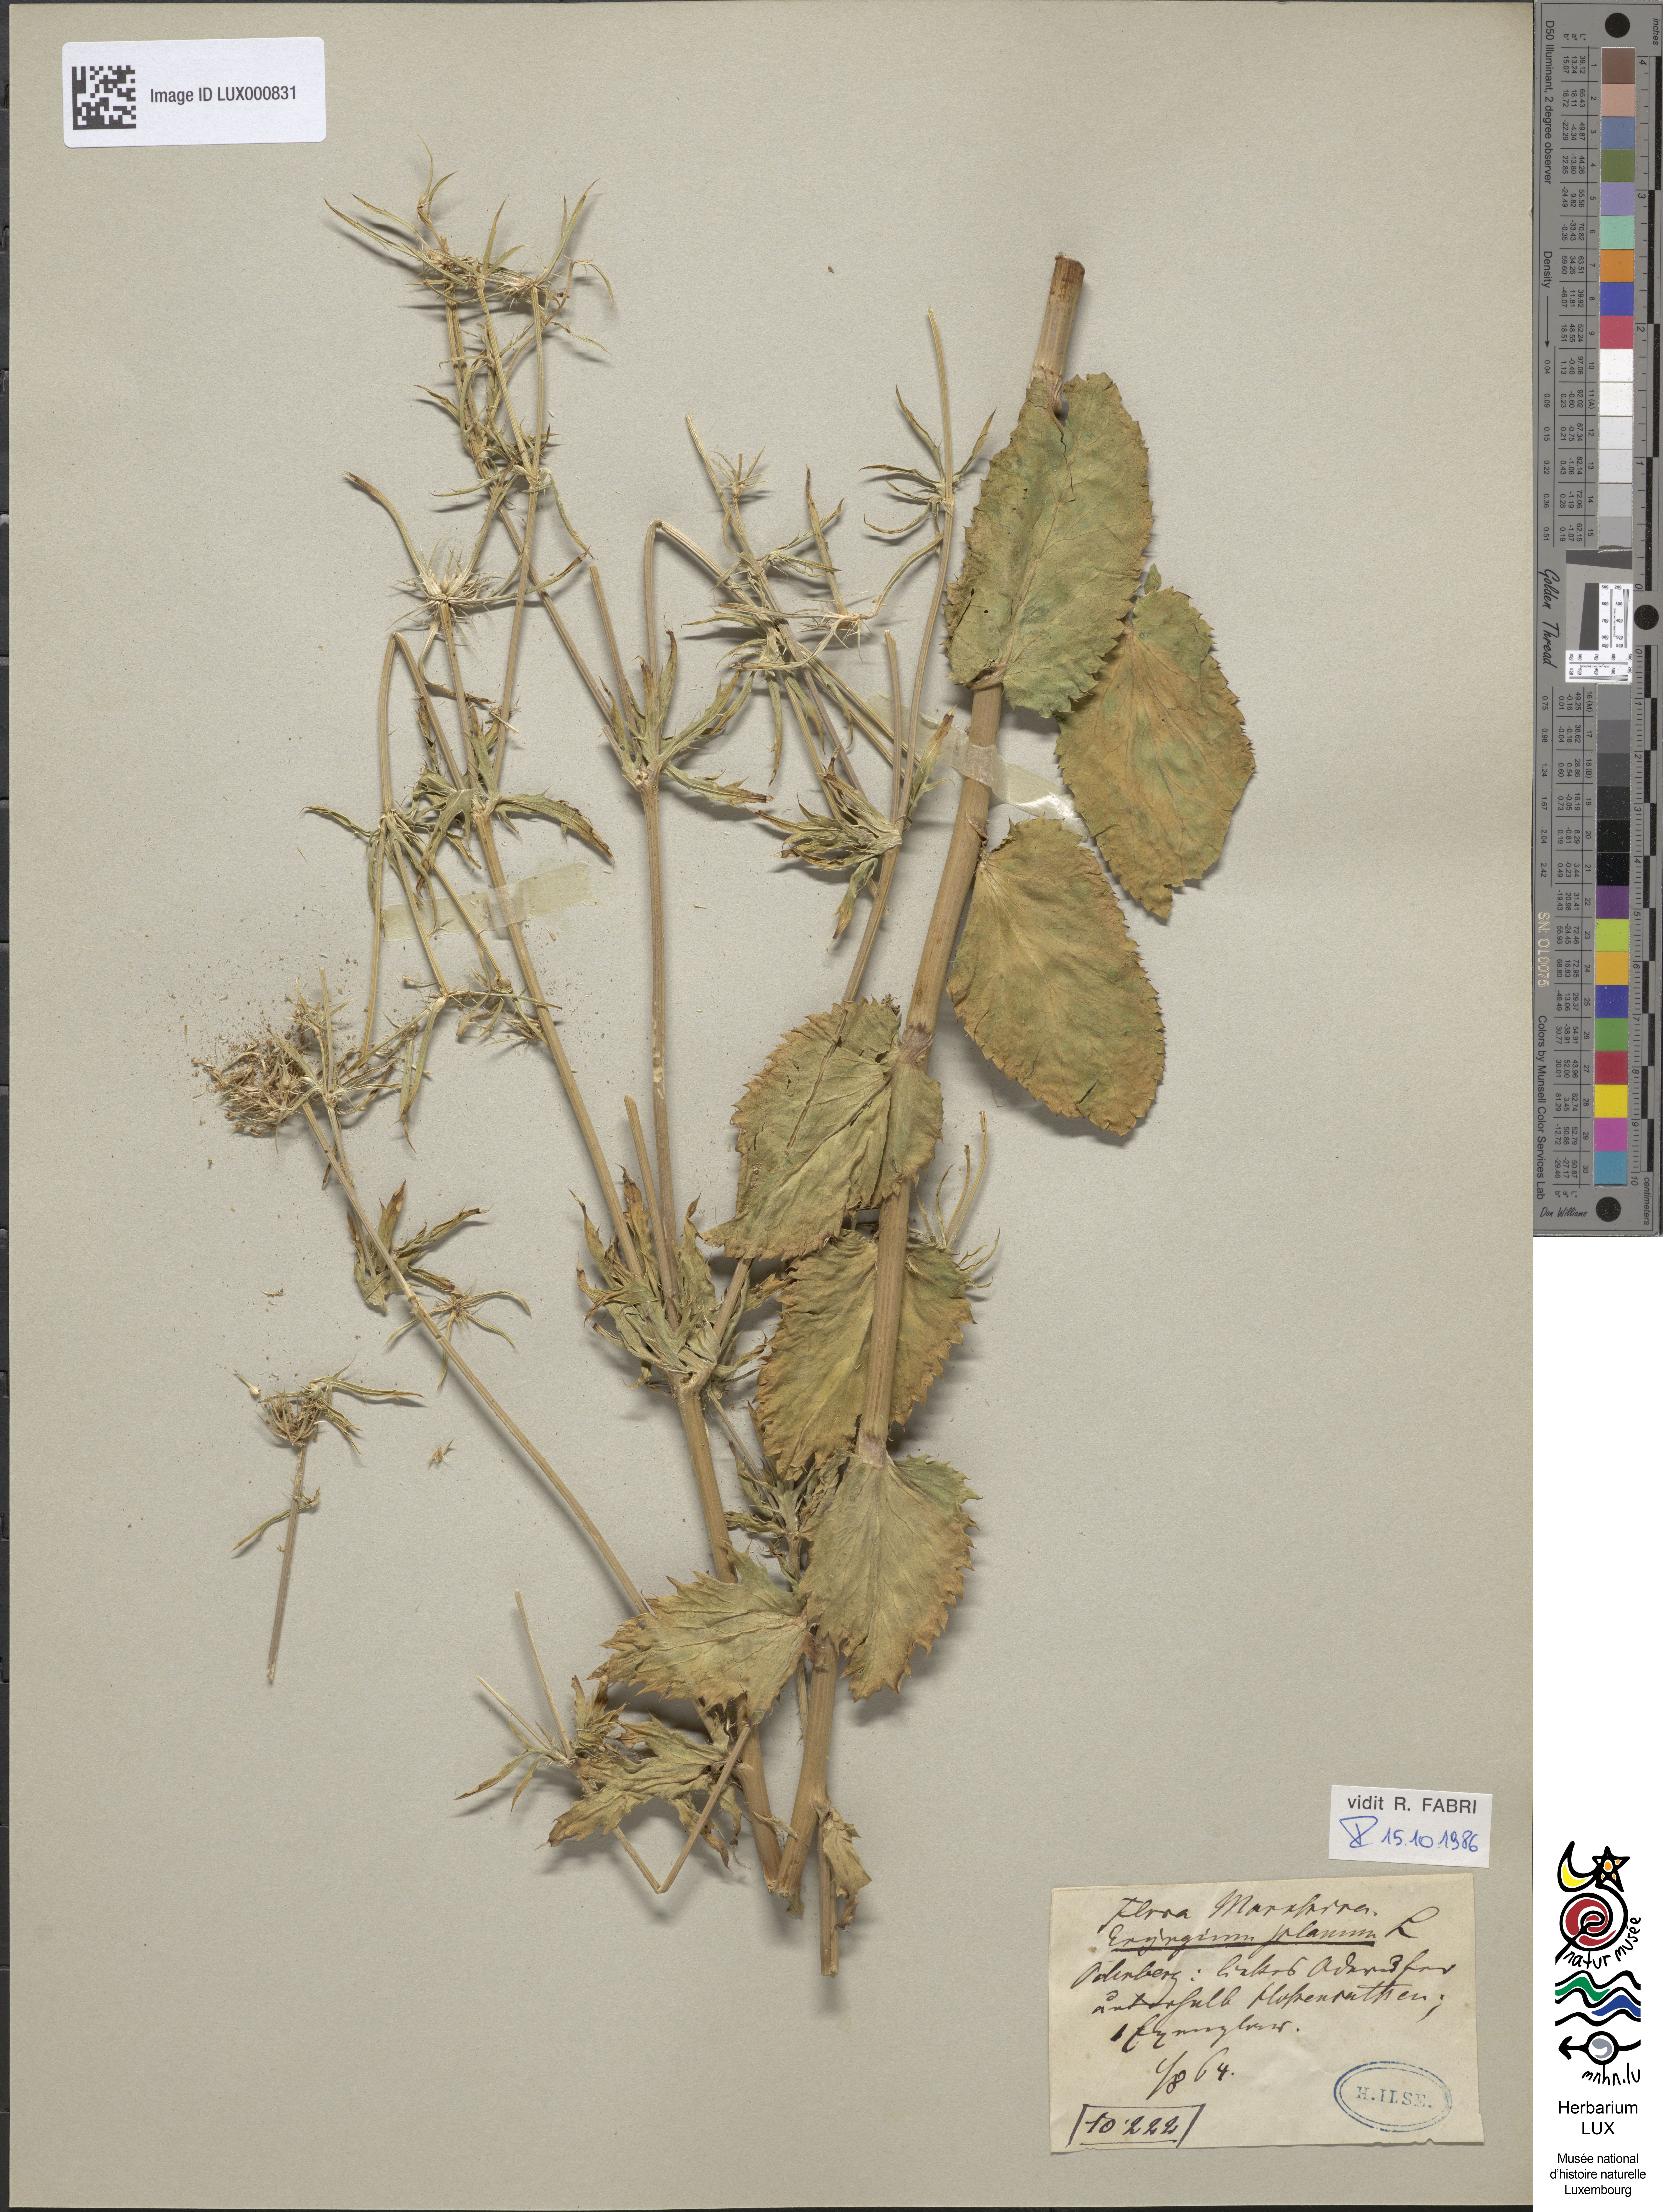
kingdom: Plantae
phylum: Tracheophyta
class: Magnoliopsida
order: Apiales
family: Apiaceae
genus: Eryngium
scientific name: Eryngium planum
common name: Blue eryngo
